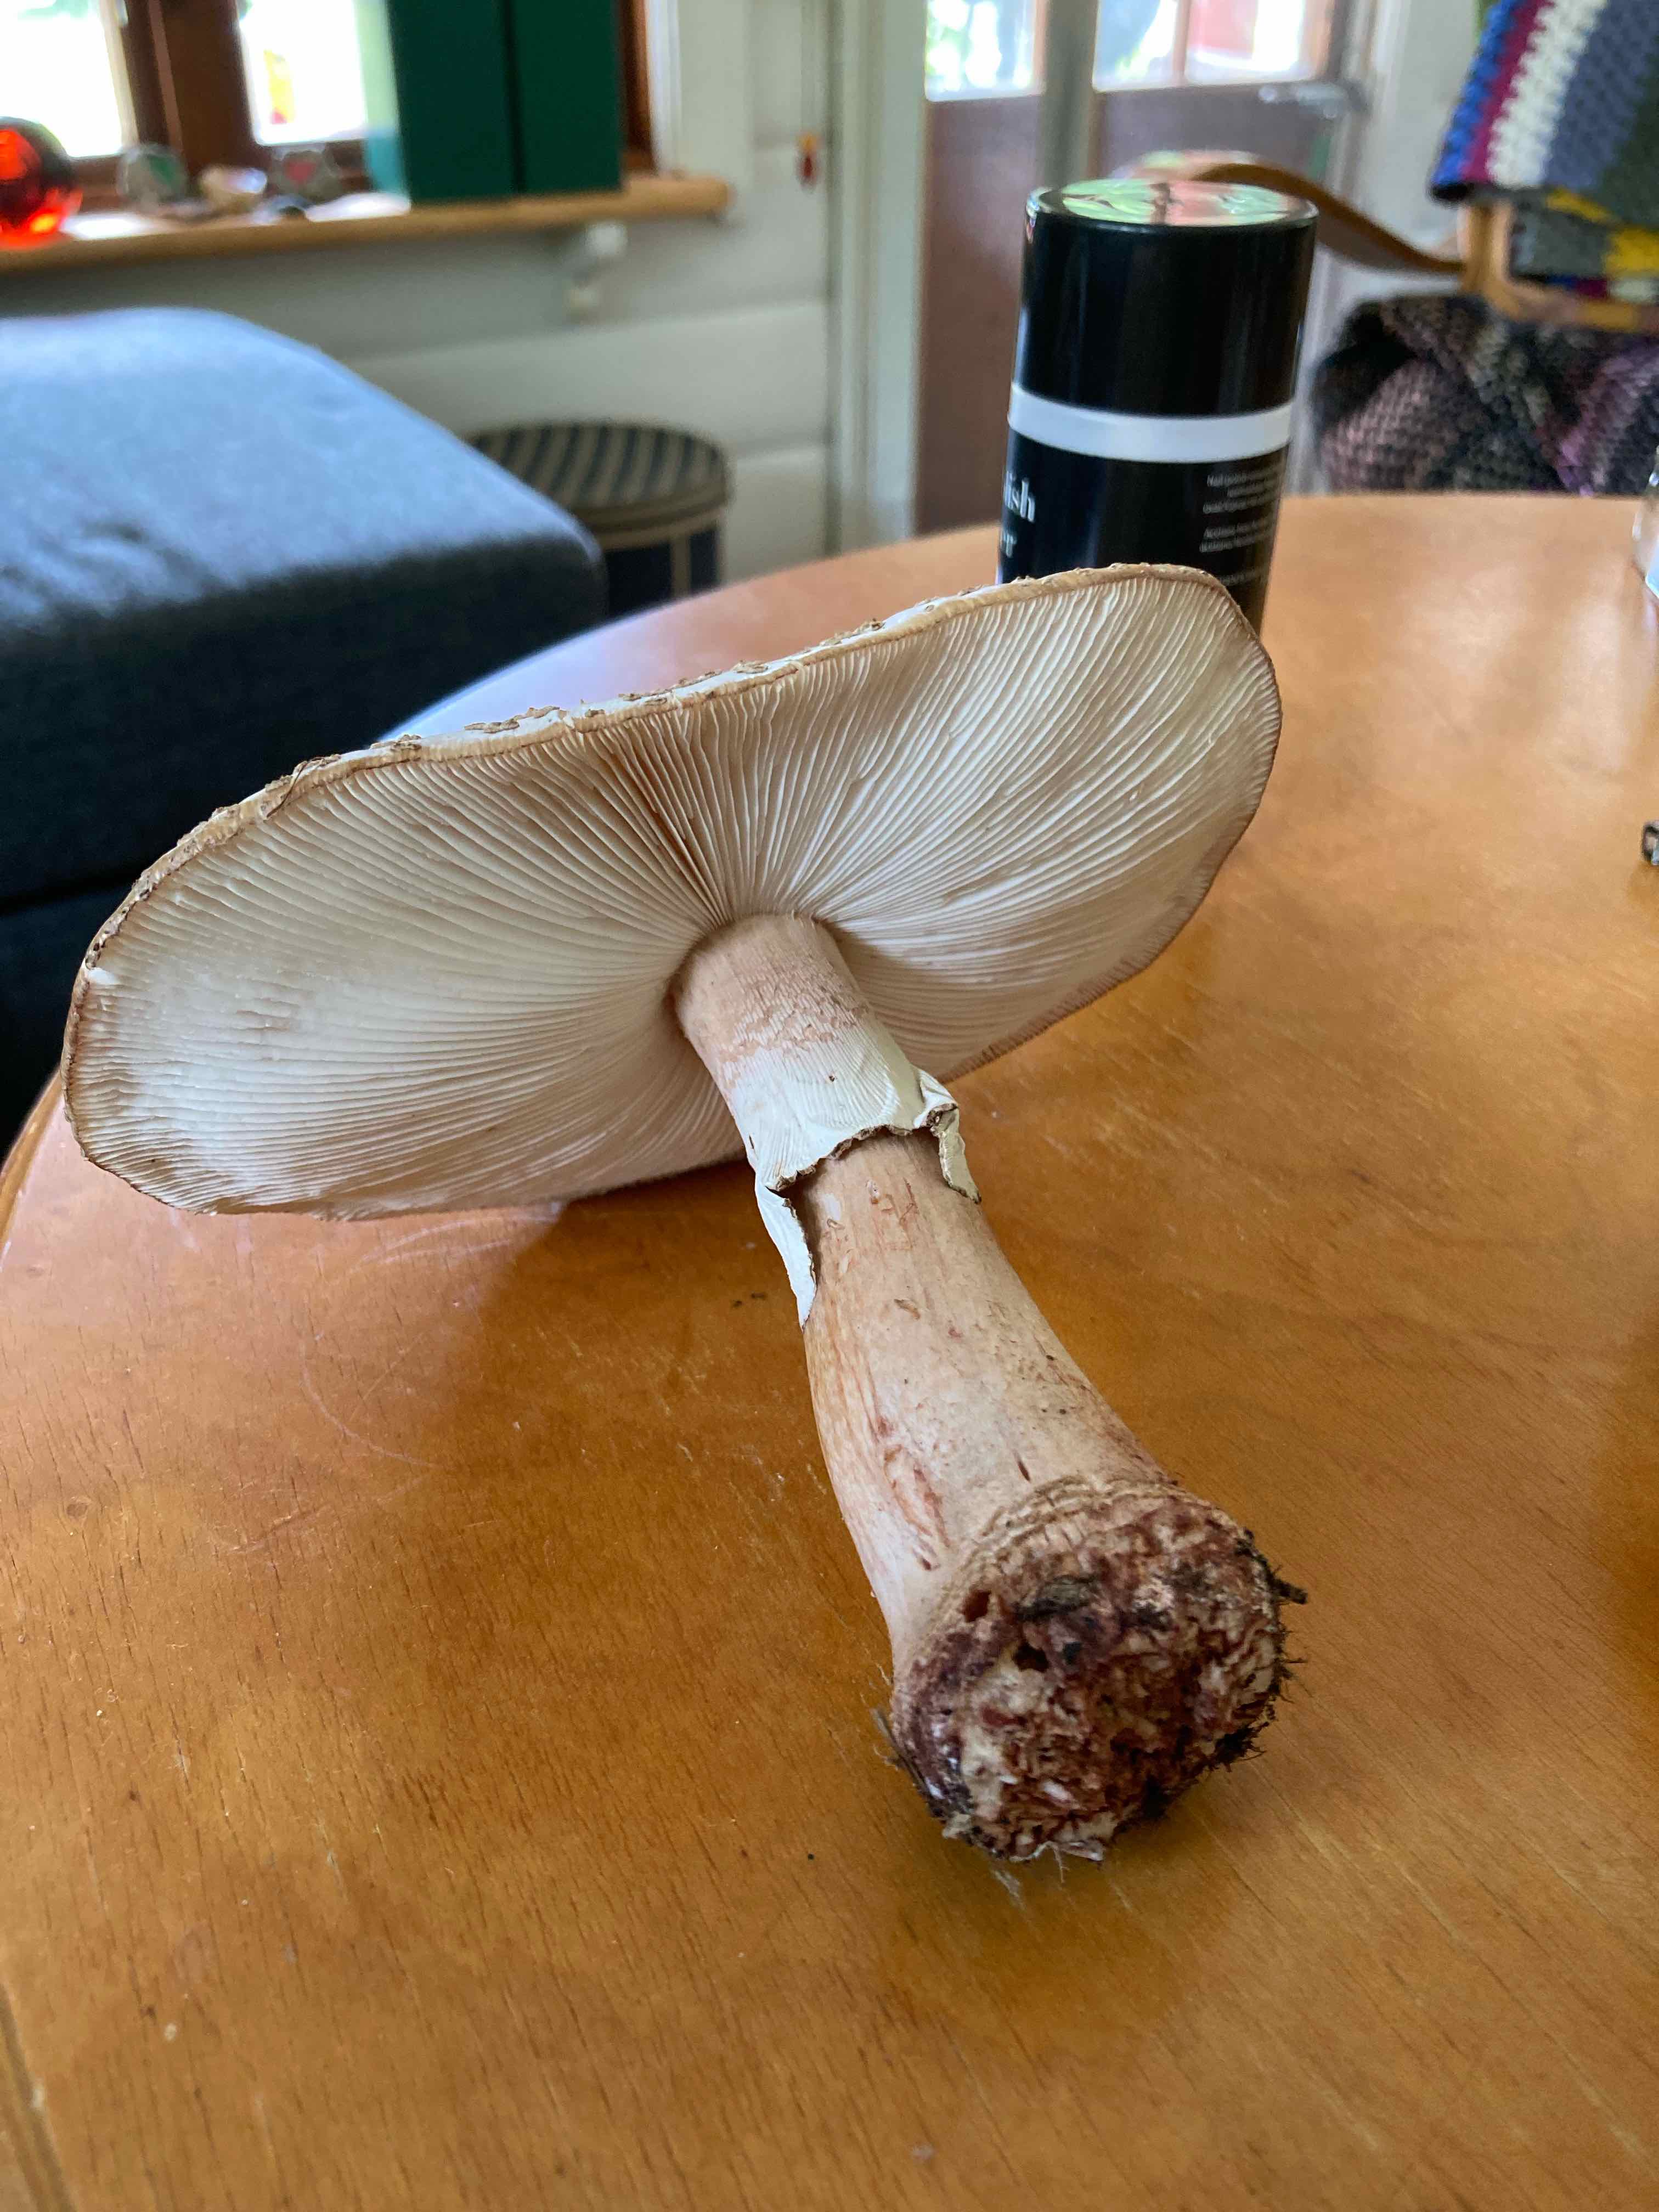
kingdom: Fungi
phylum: Basidiomycota
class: Agaricomycetes
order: Agaricales
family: Amanitaceae
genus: Amanita
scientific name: Amanita rubescens
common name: rødmende fluesvamp
